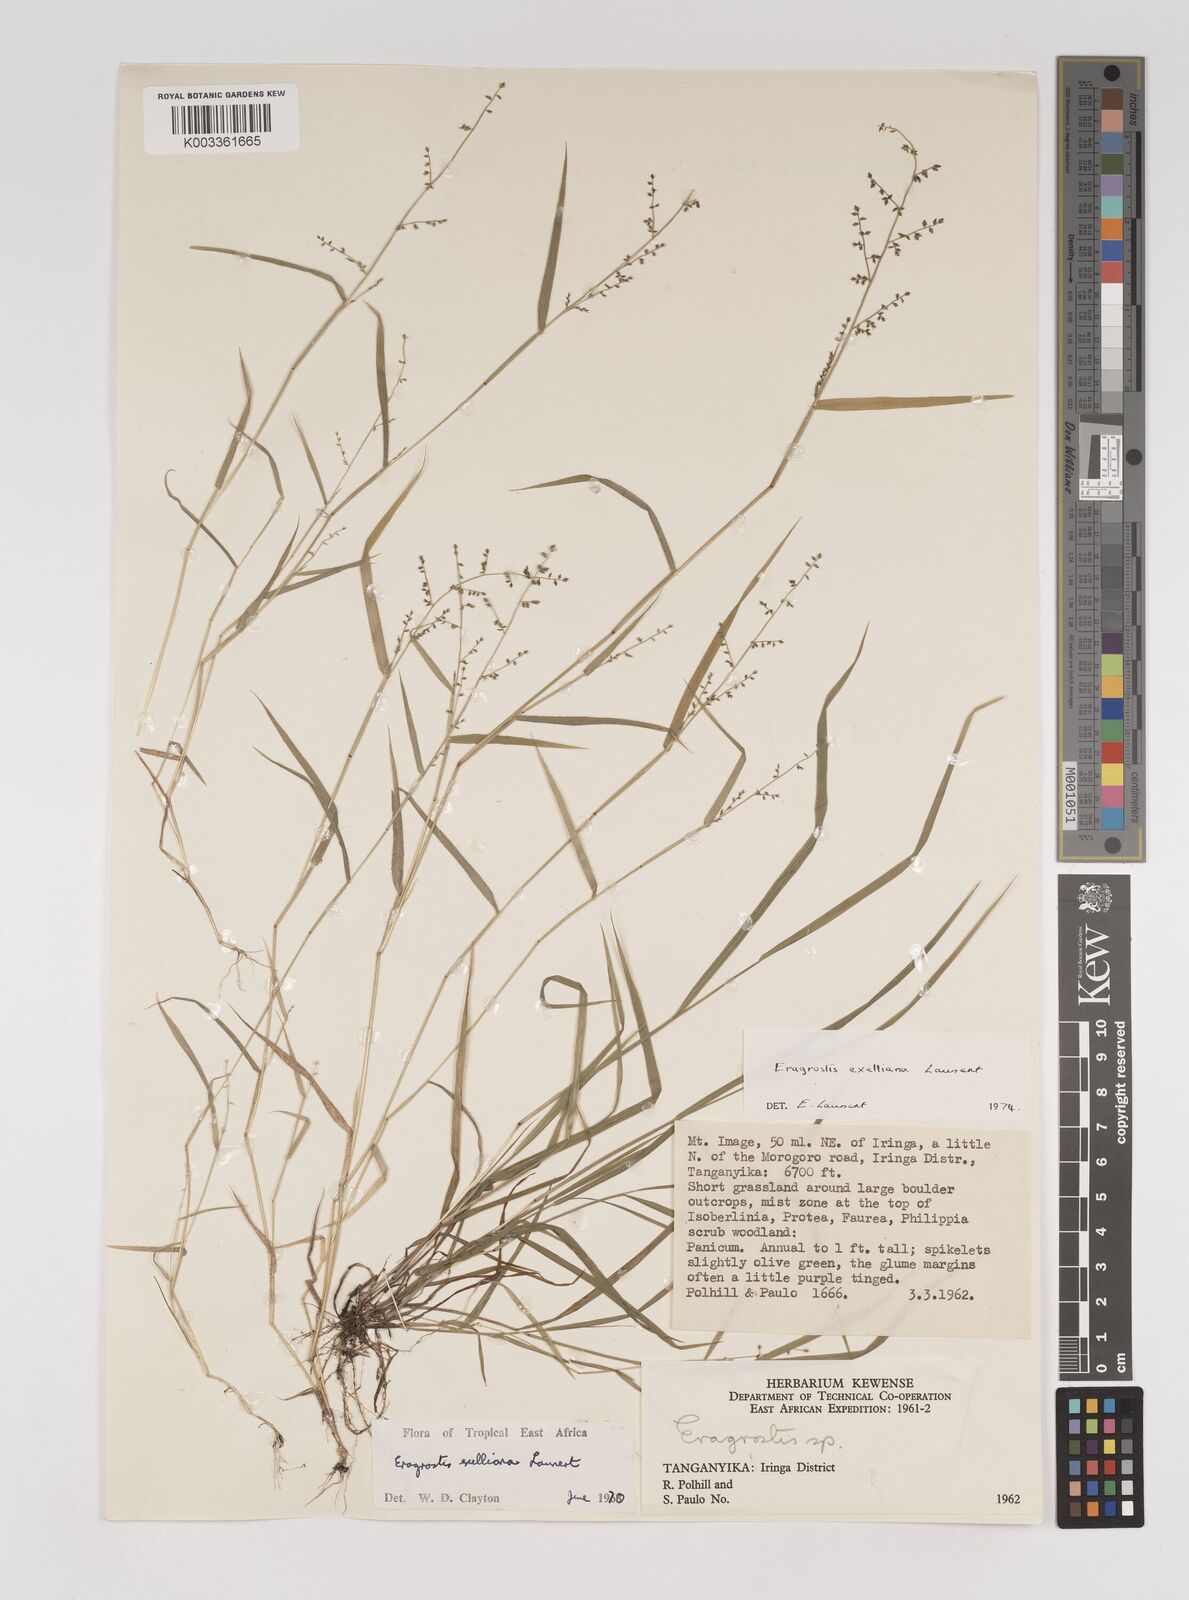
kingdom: Plantae
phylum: Tracheophyta
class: Liliopsida
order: Poales
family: Poaceae
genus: Eragrostis
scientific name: Eragrostis exelliana
